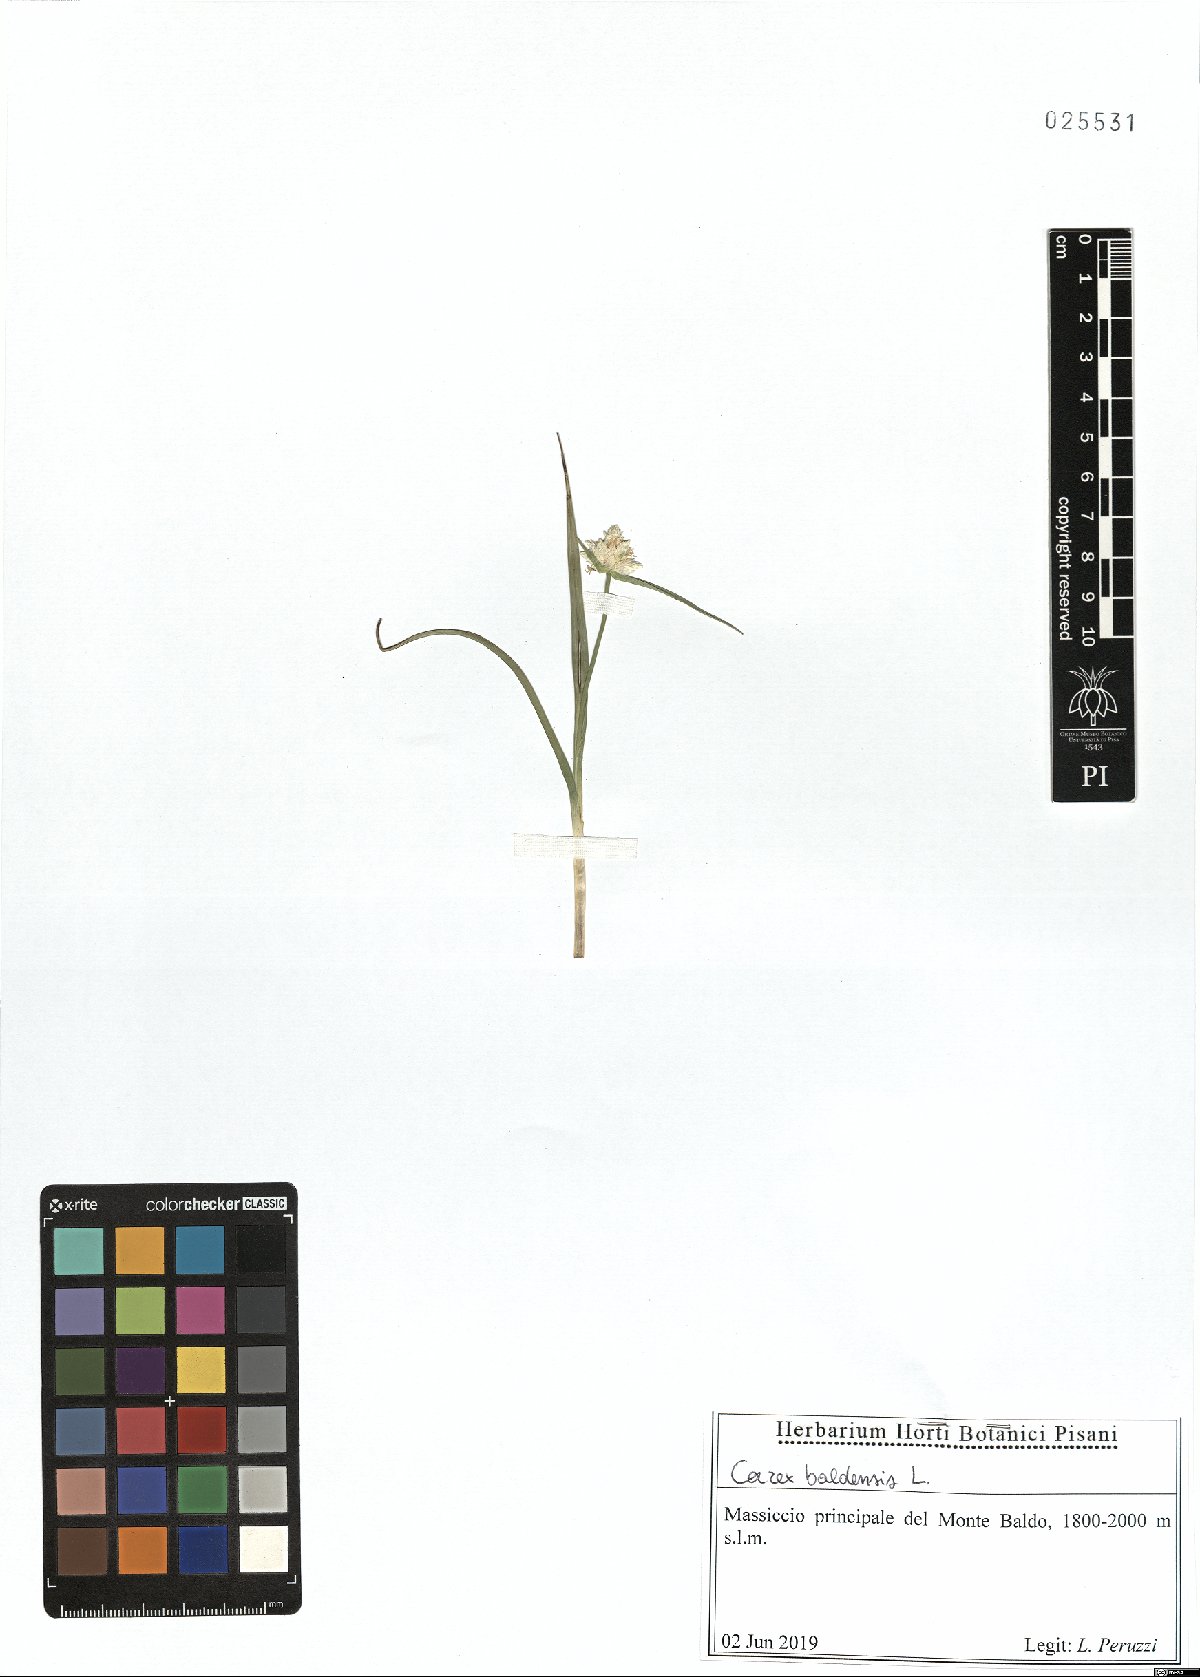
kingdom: Plantae
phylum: Tracheophyta
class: Liliopsida
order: Poales
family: Cyperaceae
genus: Carex
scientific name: Carex baldensis
